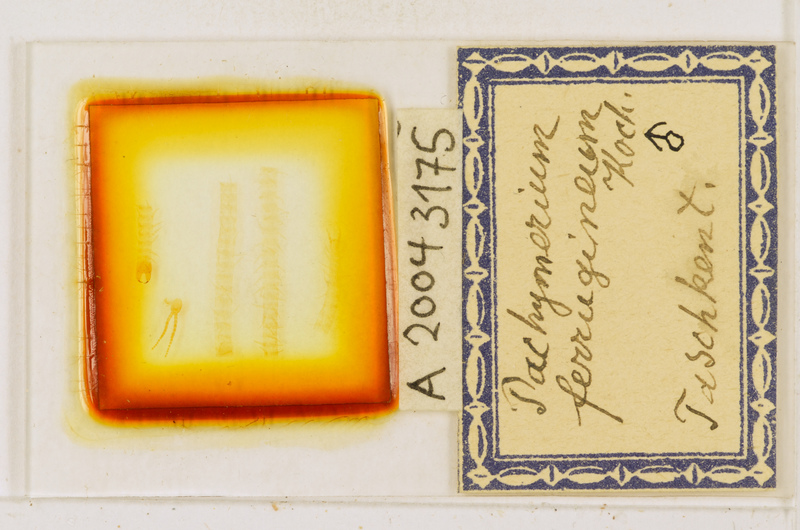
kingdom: Animalia
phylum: Arthropoda
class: Chilopoda
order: Geophilomorpha
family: Geophilidae
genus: Pachymerium
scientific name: Pachymerium ferrugineum
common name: Centipede
